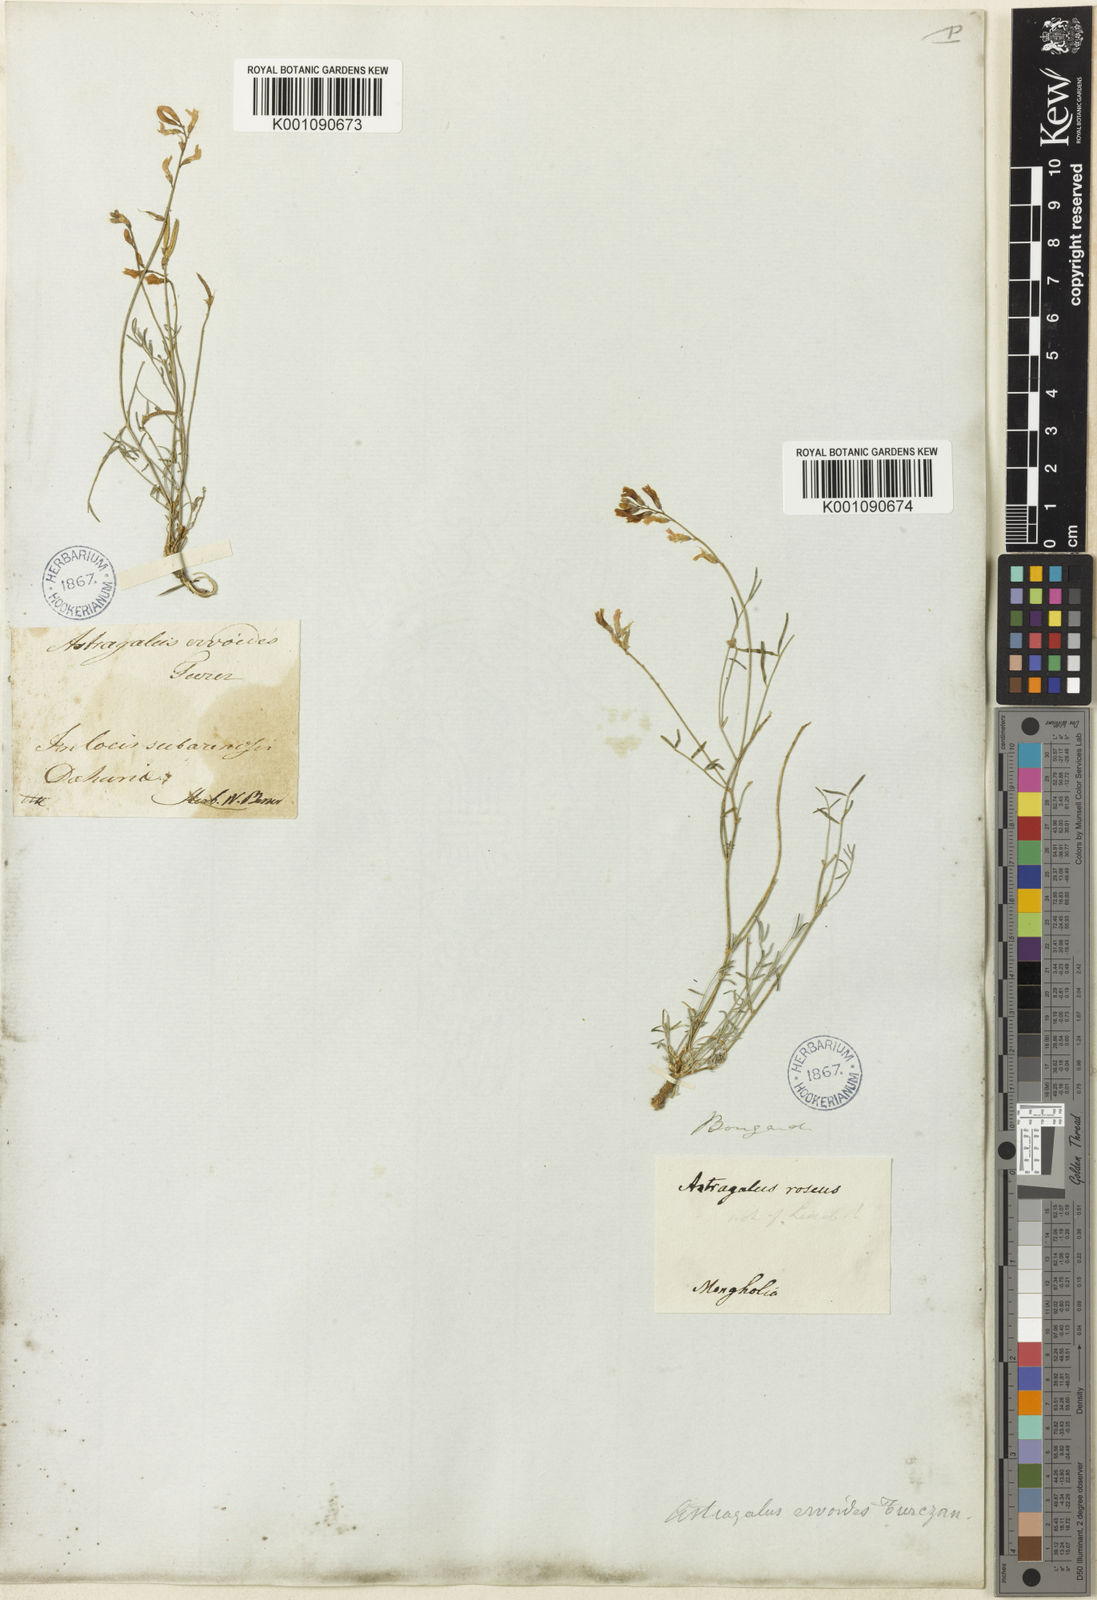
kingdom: Plantae
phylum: Tracheophyta
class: Magnoliopsida
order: Fabales
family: Fabaceae
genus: Astragalus
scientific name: Astragalus
